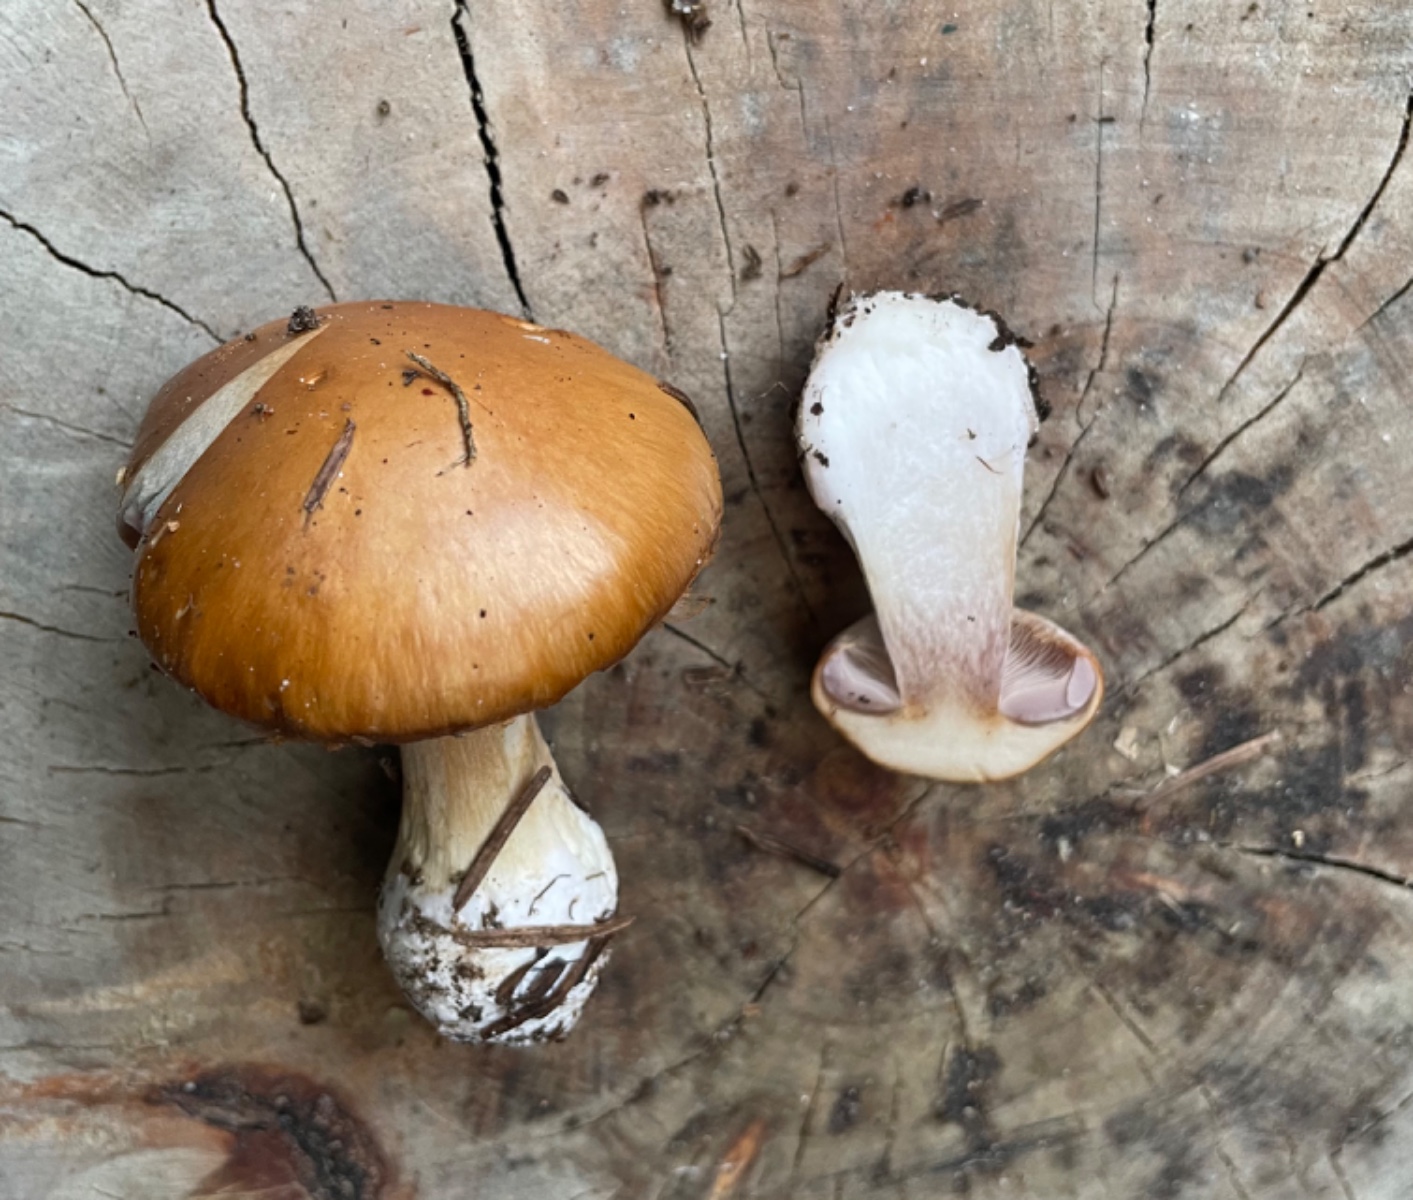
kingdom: Fungi
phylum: Basidiomycota
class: Agaricomycetes
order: Agaricales
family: Cortinariaceae
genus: Thaxterogaster
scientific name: Thaxterogaster multiformis
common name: honning-slørhat
